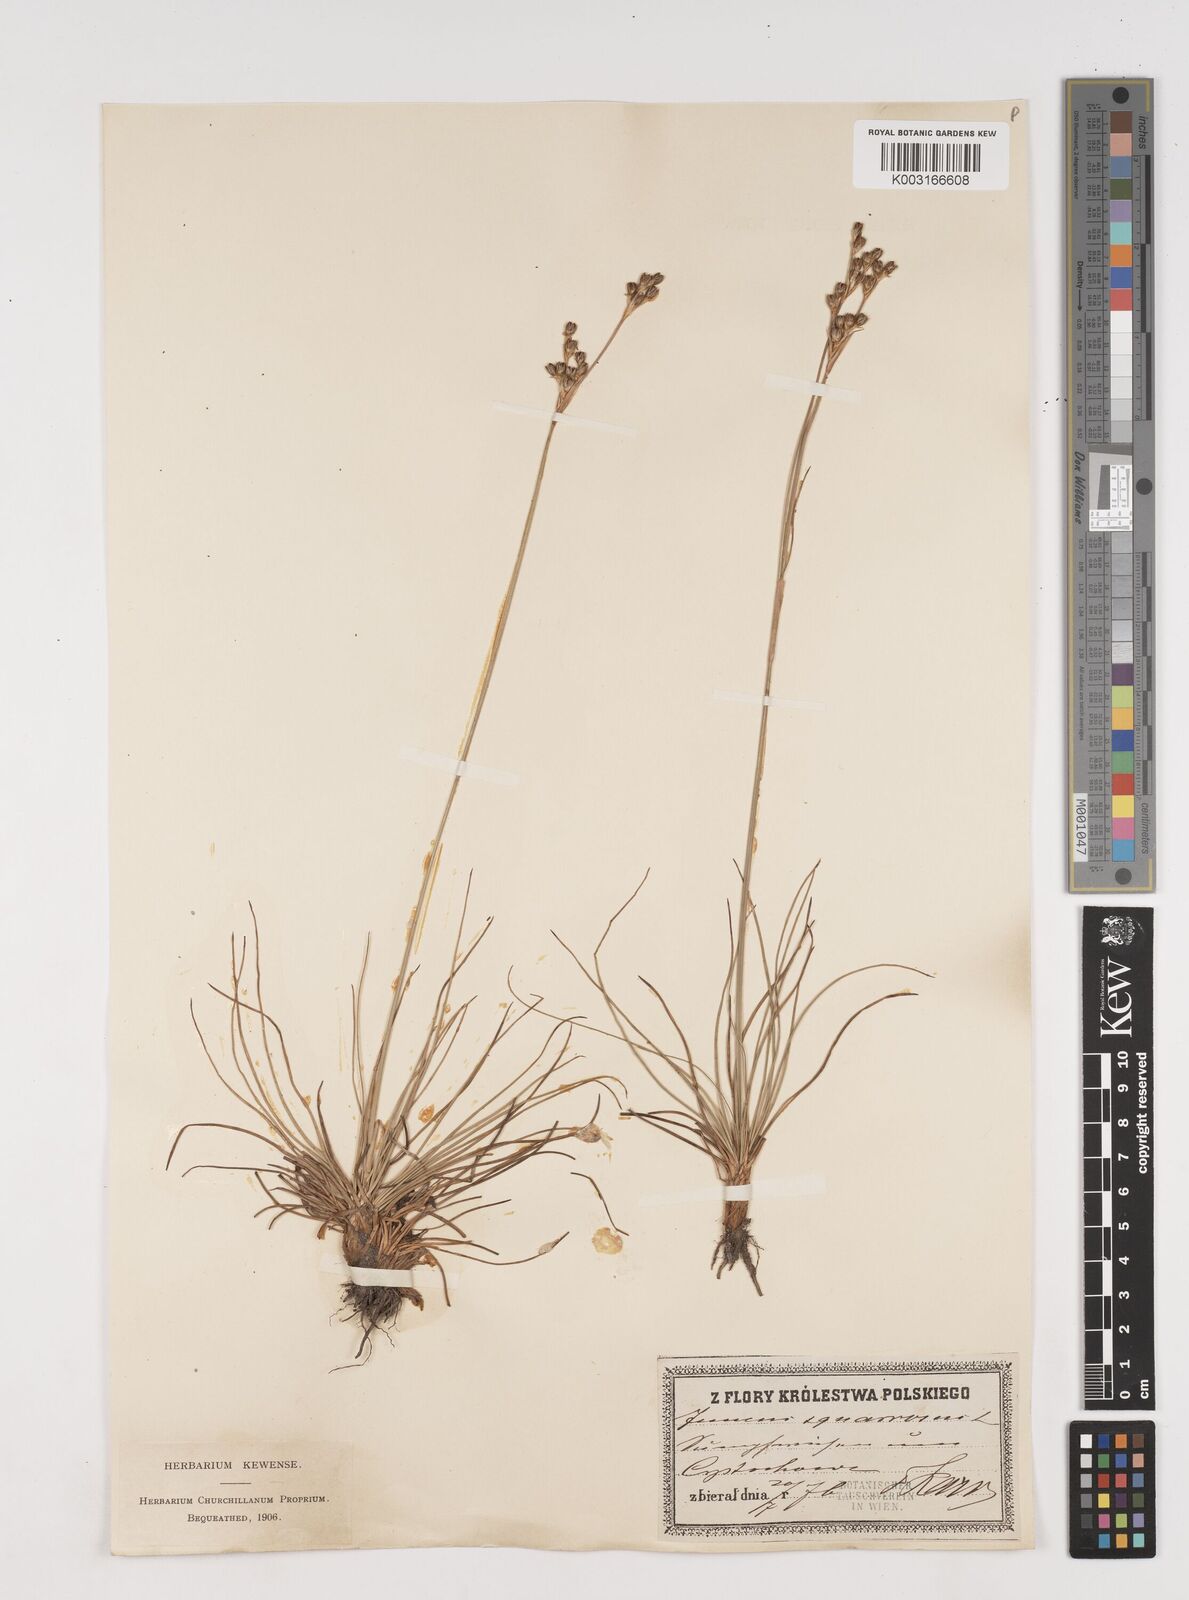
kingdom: Plantae
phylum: Tracheophyta
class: Liliopsida
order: Poales
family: Juncaceae
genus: Juncus
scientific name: Juncus squarrosus
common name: Heath rush
